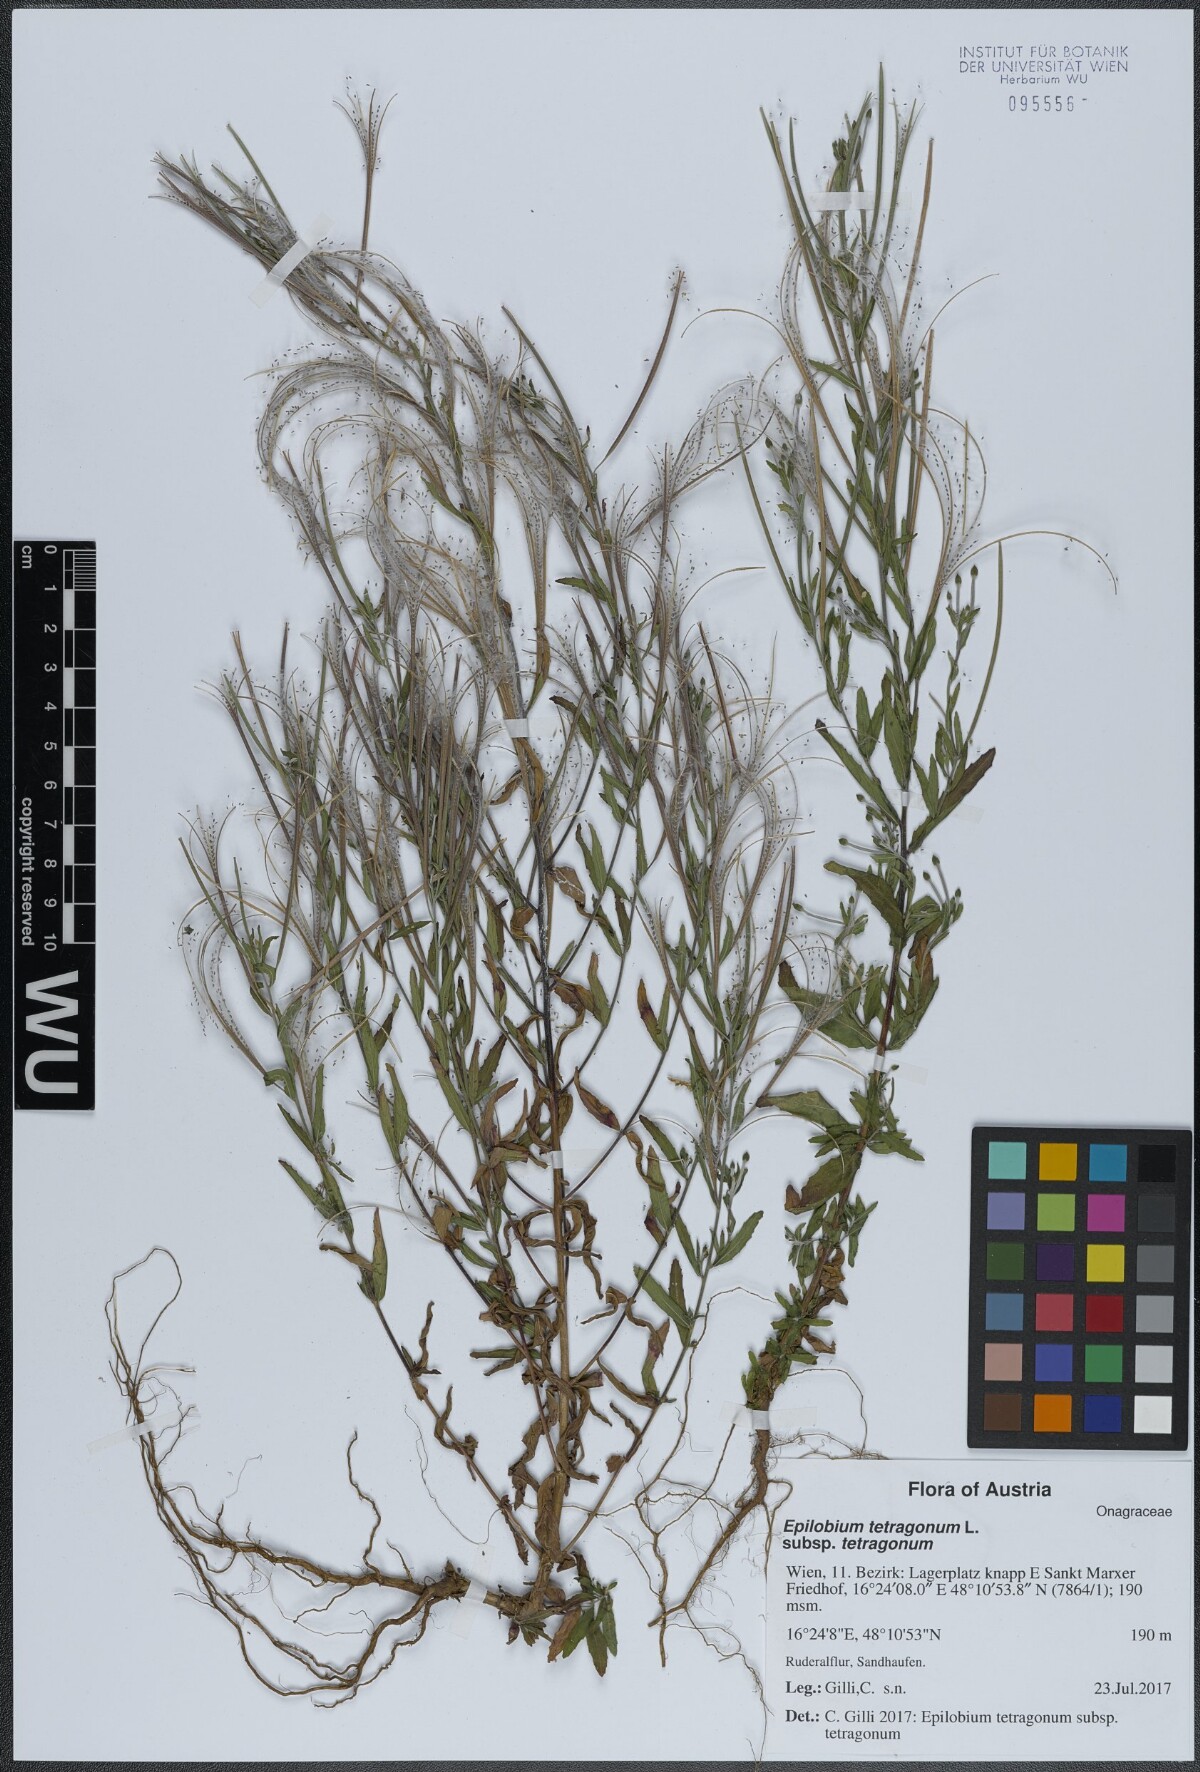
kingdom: Plantae
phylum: Tracheophyta
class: Magnoliopsida
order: Myrtales
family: Onagraceae
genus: Epilobium
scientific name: Epilobium tetragonum
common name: Square-stemmed willowherb
